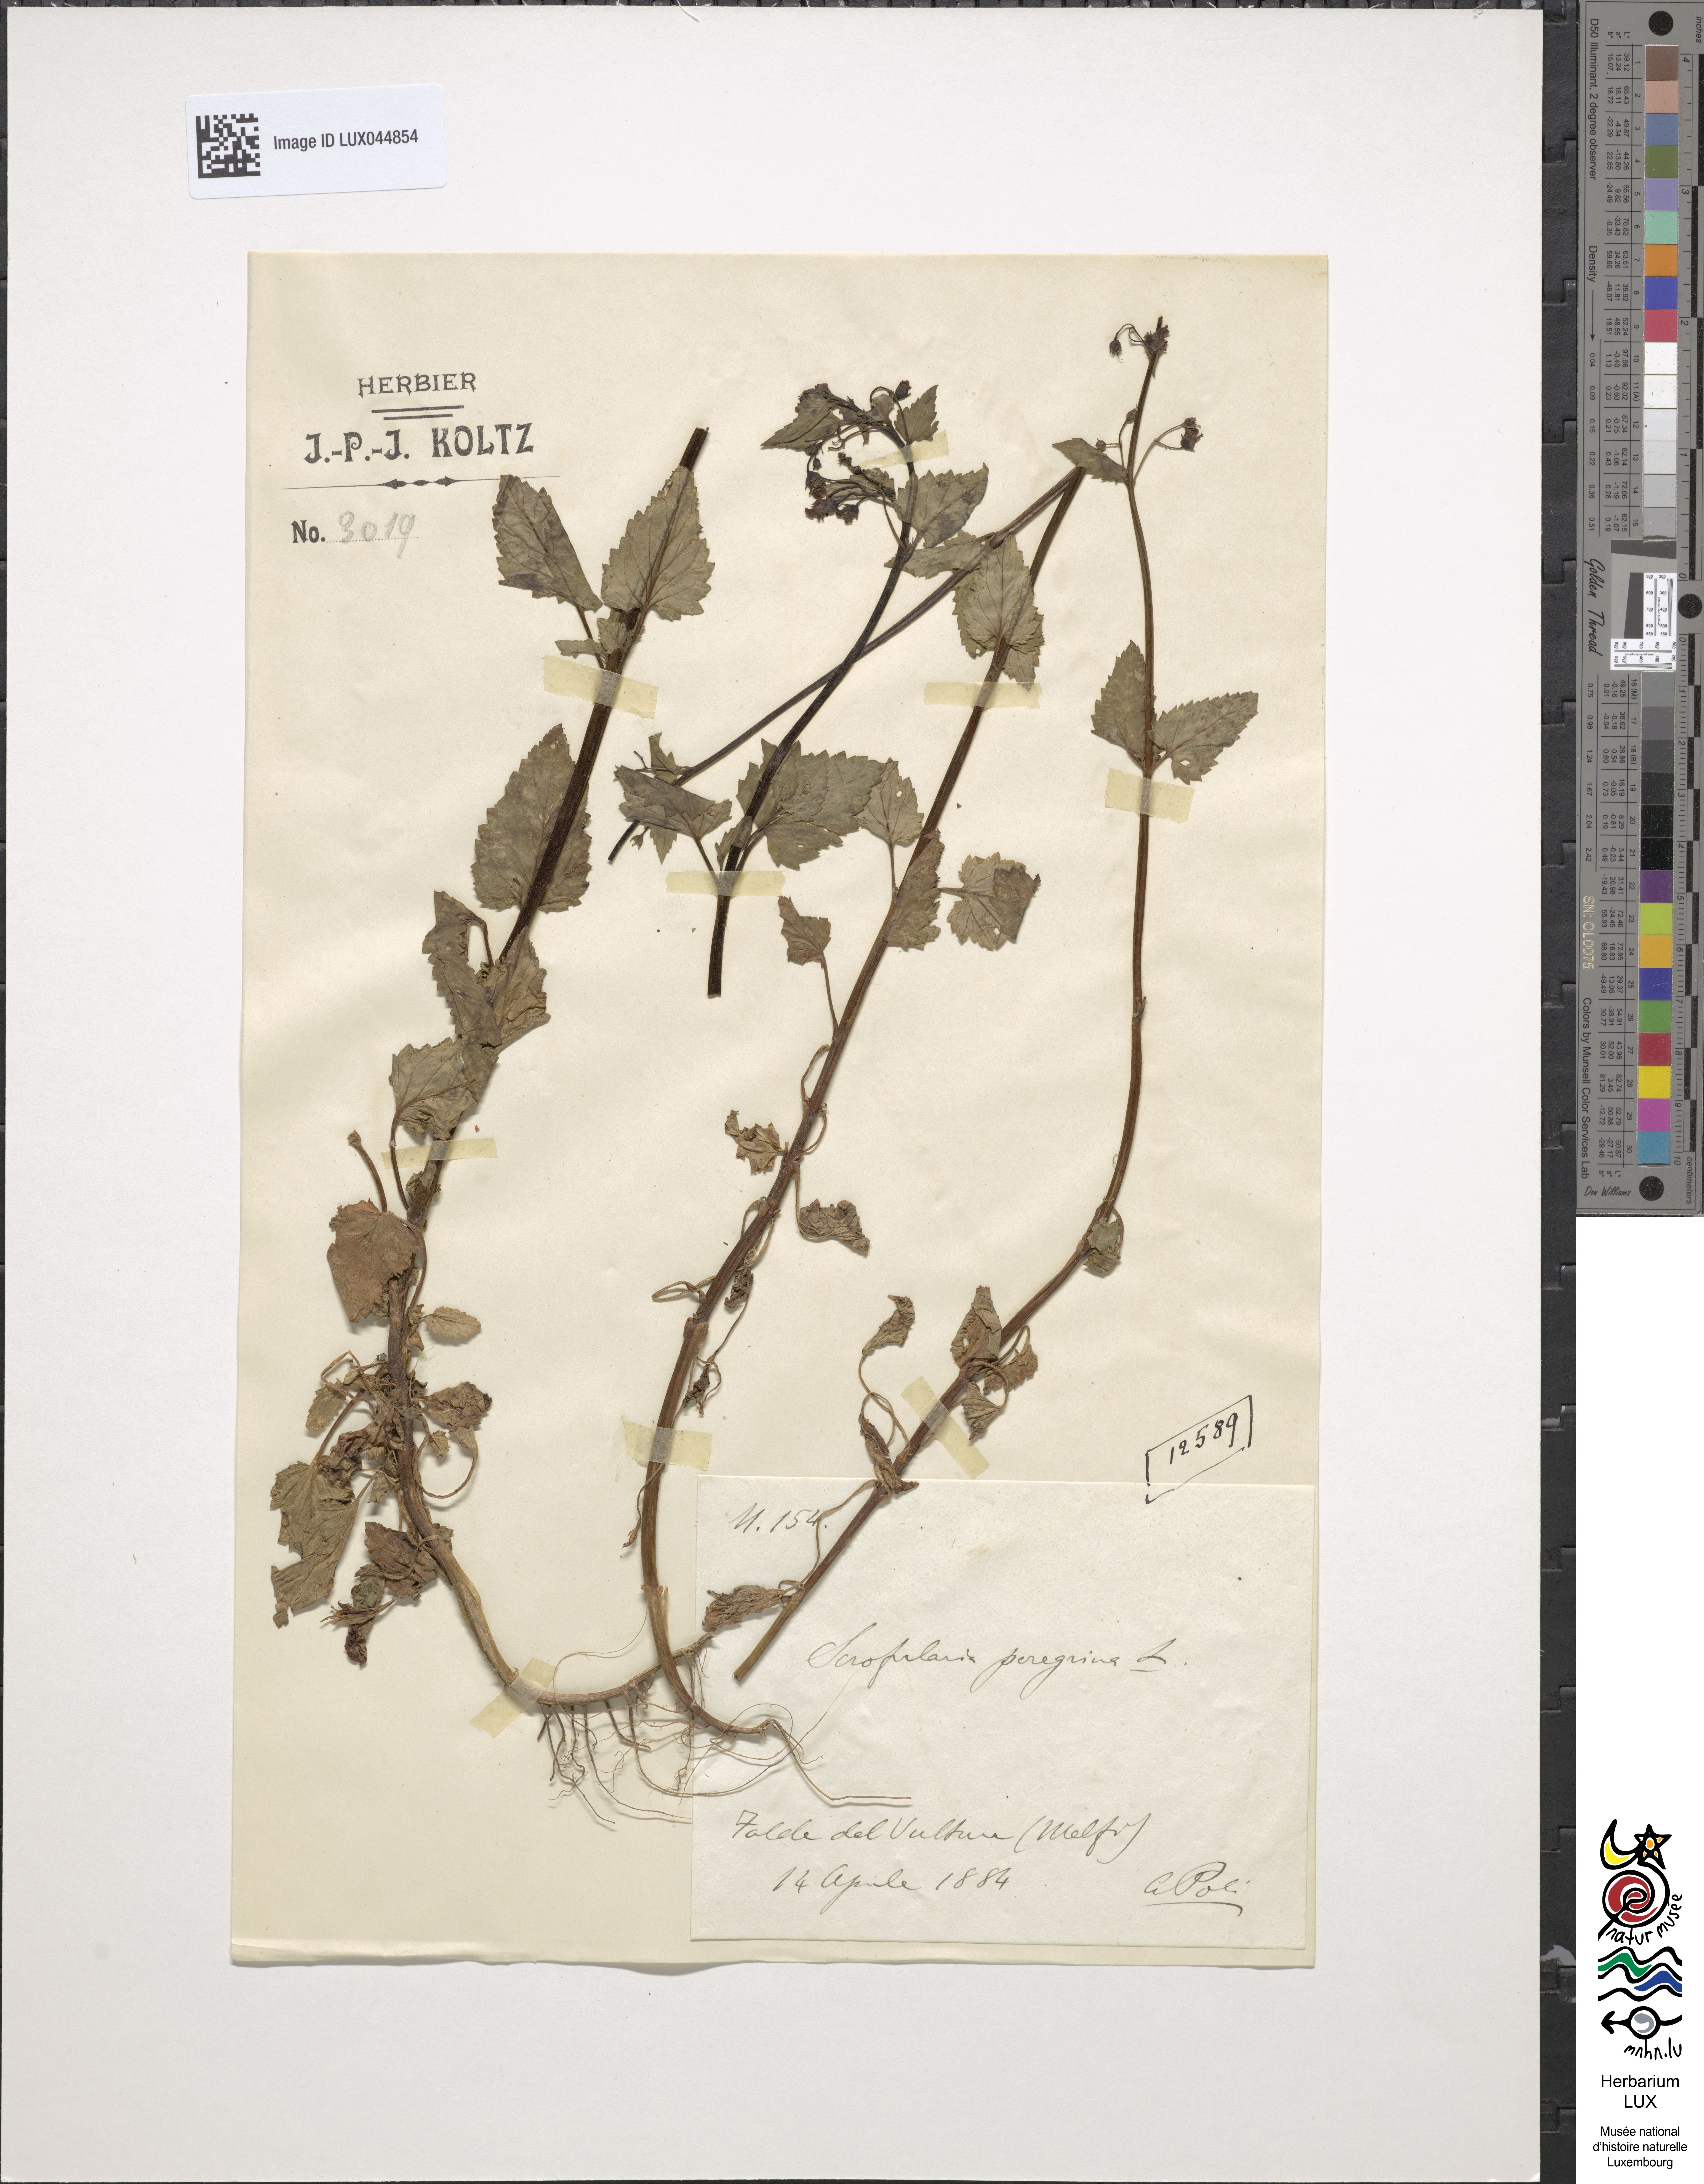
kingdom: Plantae
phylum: Tracheophyta
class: Magnoliopsida
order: Lamiales
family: Scrophulariaceae
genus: Scrophularia
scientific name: Scrophularia peregrina
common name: Mediterranean figwort
